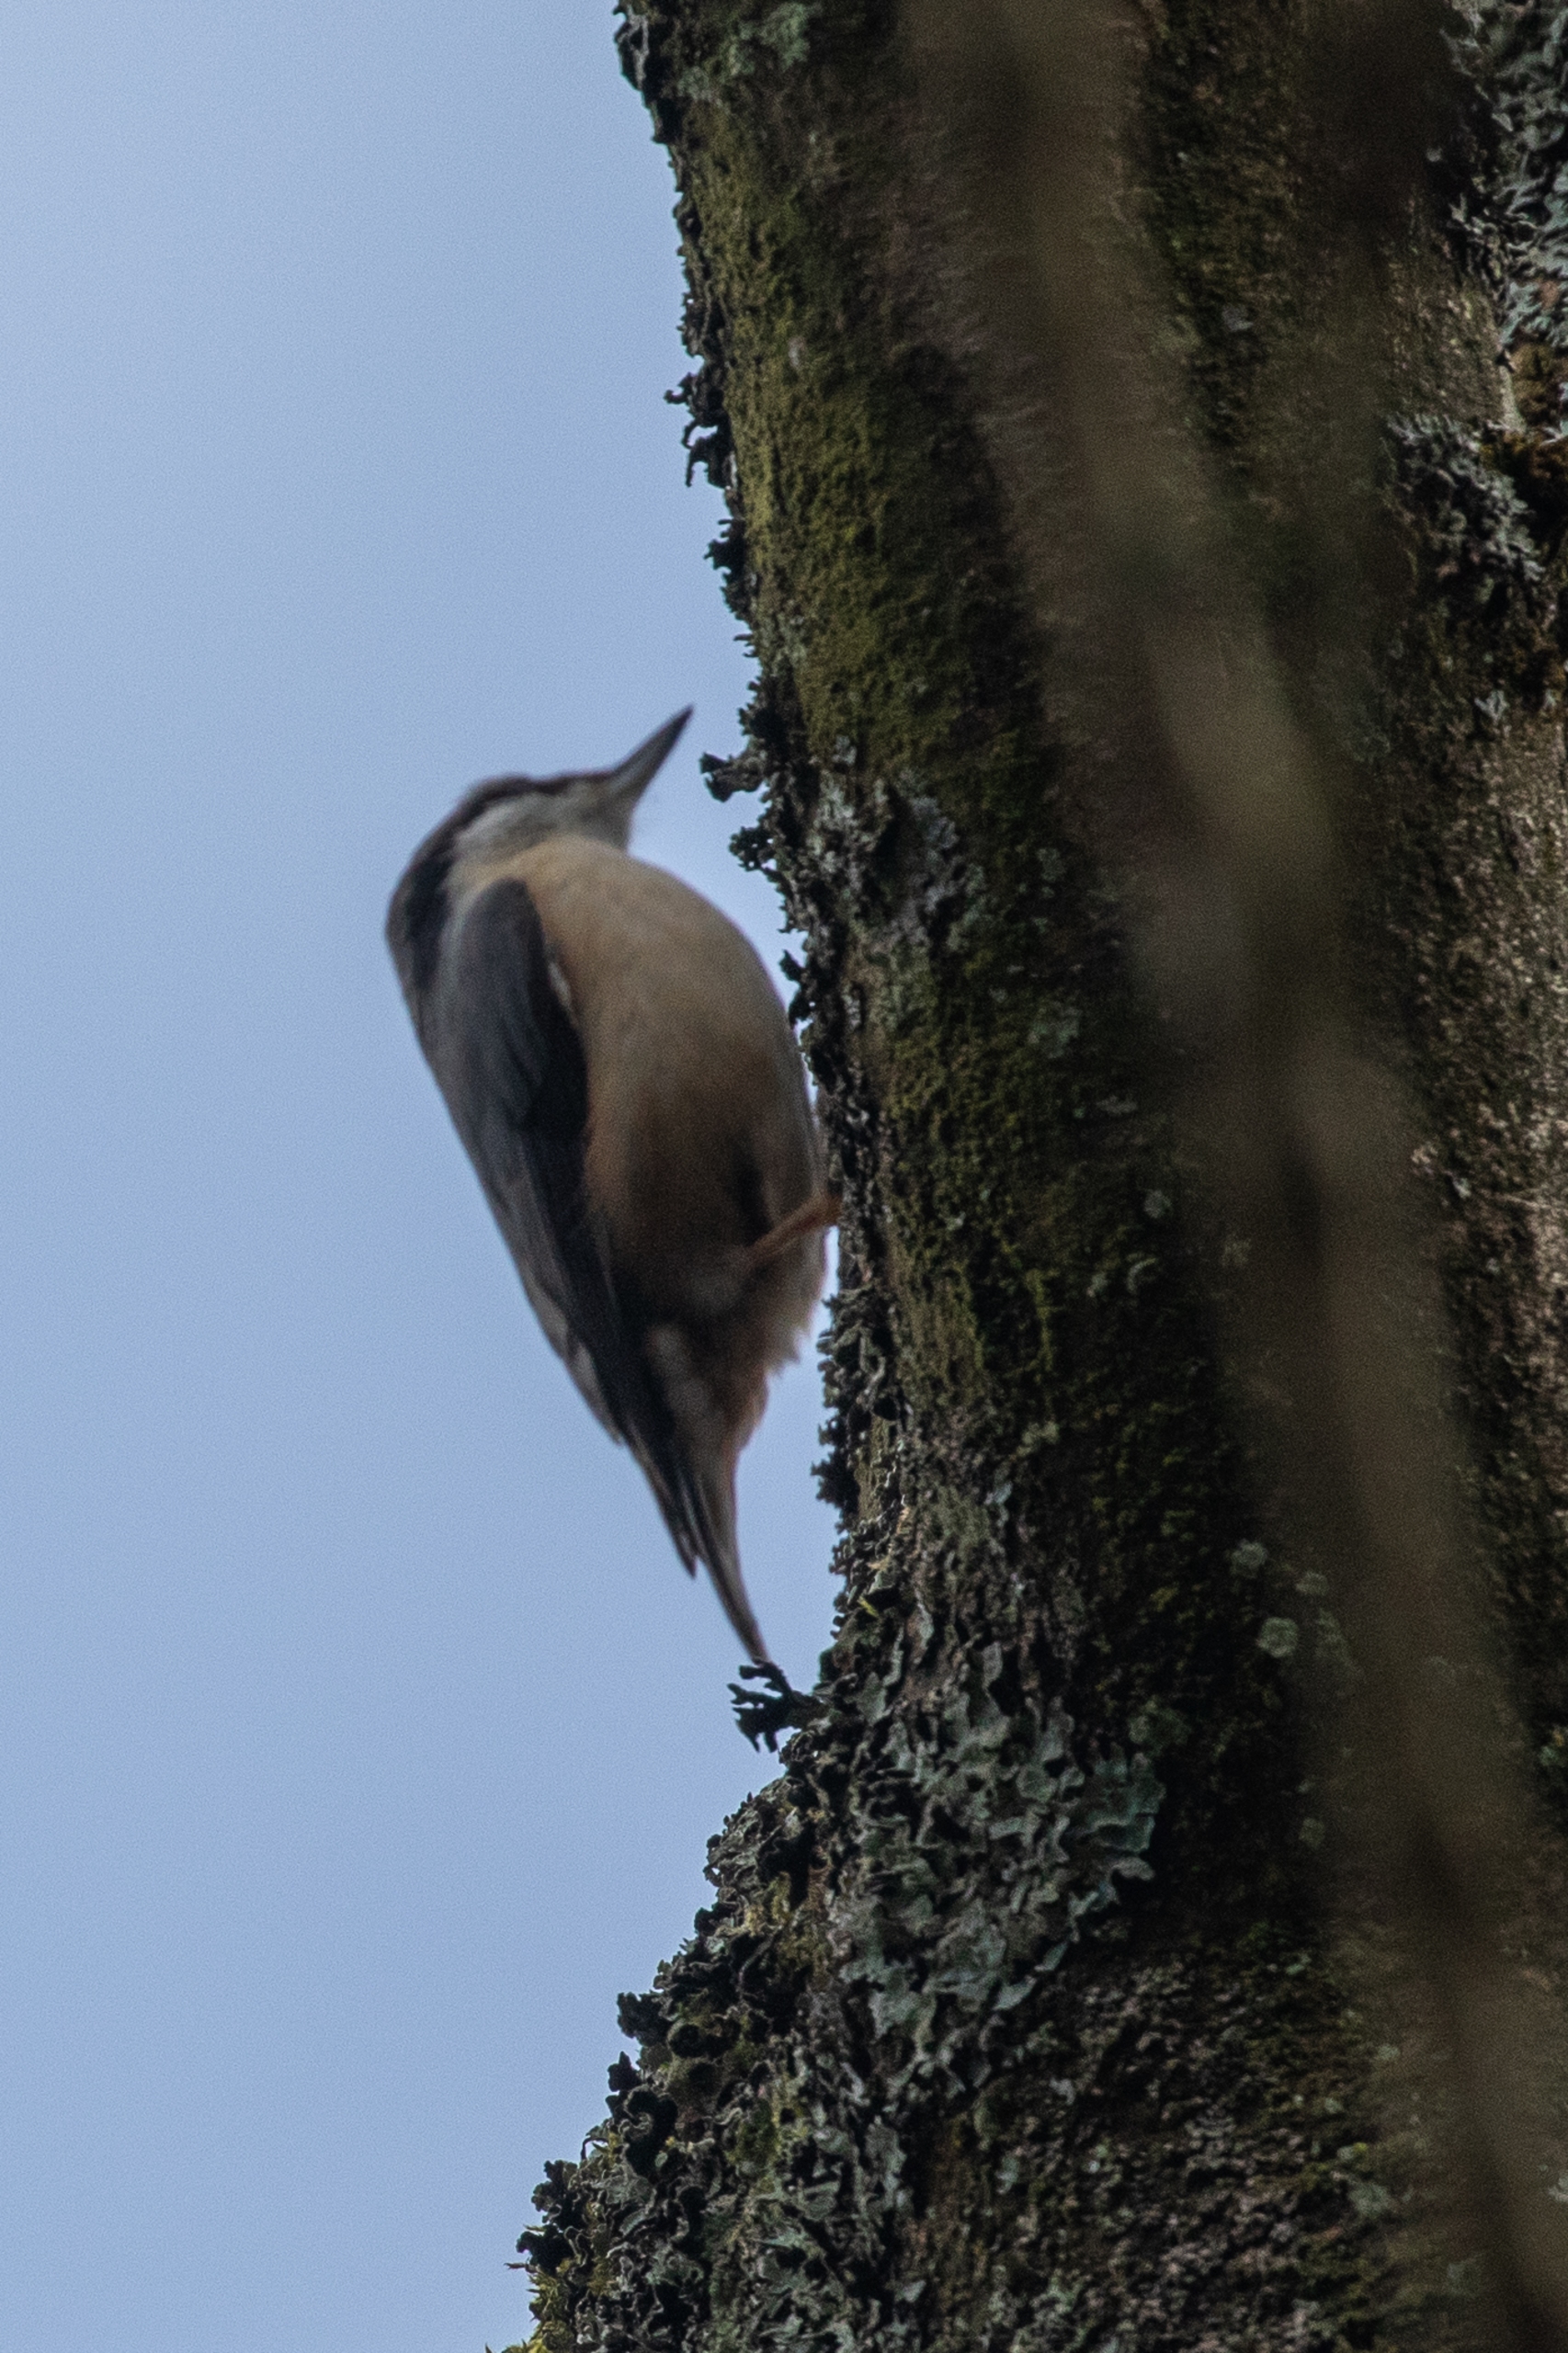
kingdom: Animalia
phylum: Chordata
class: Aves
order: Passeriformes
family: Sittidae
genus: Sitta
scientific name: Sitta europaea
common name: Spætmejse
